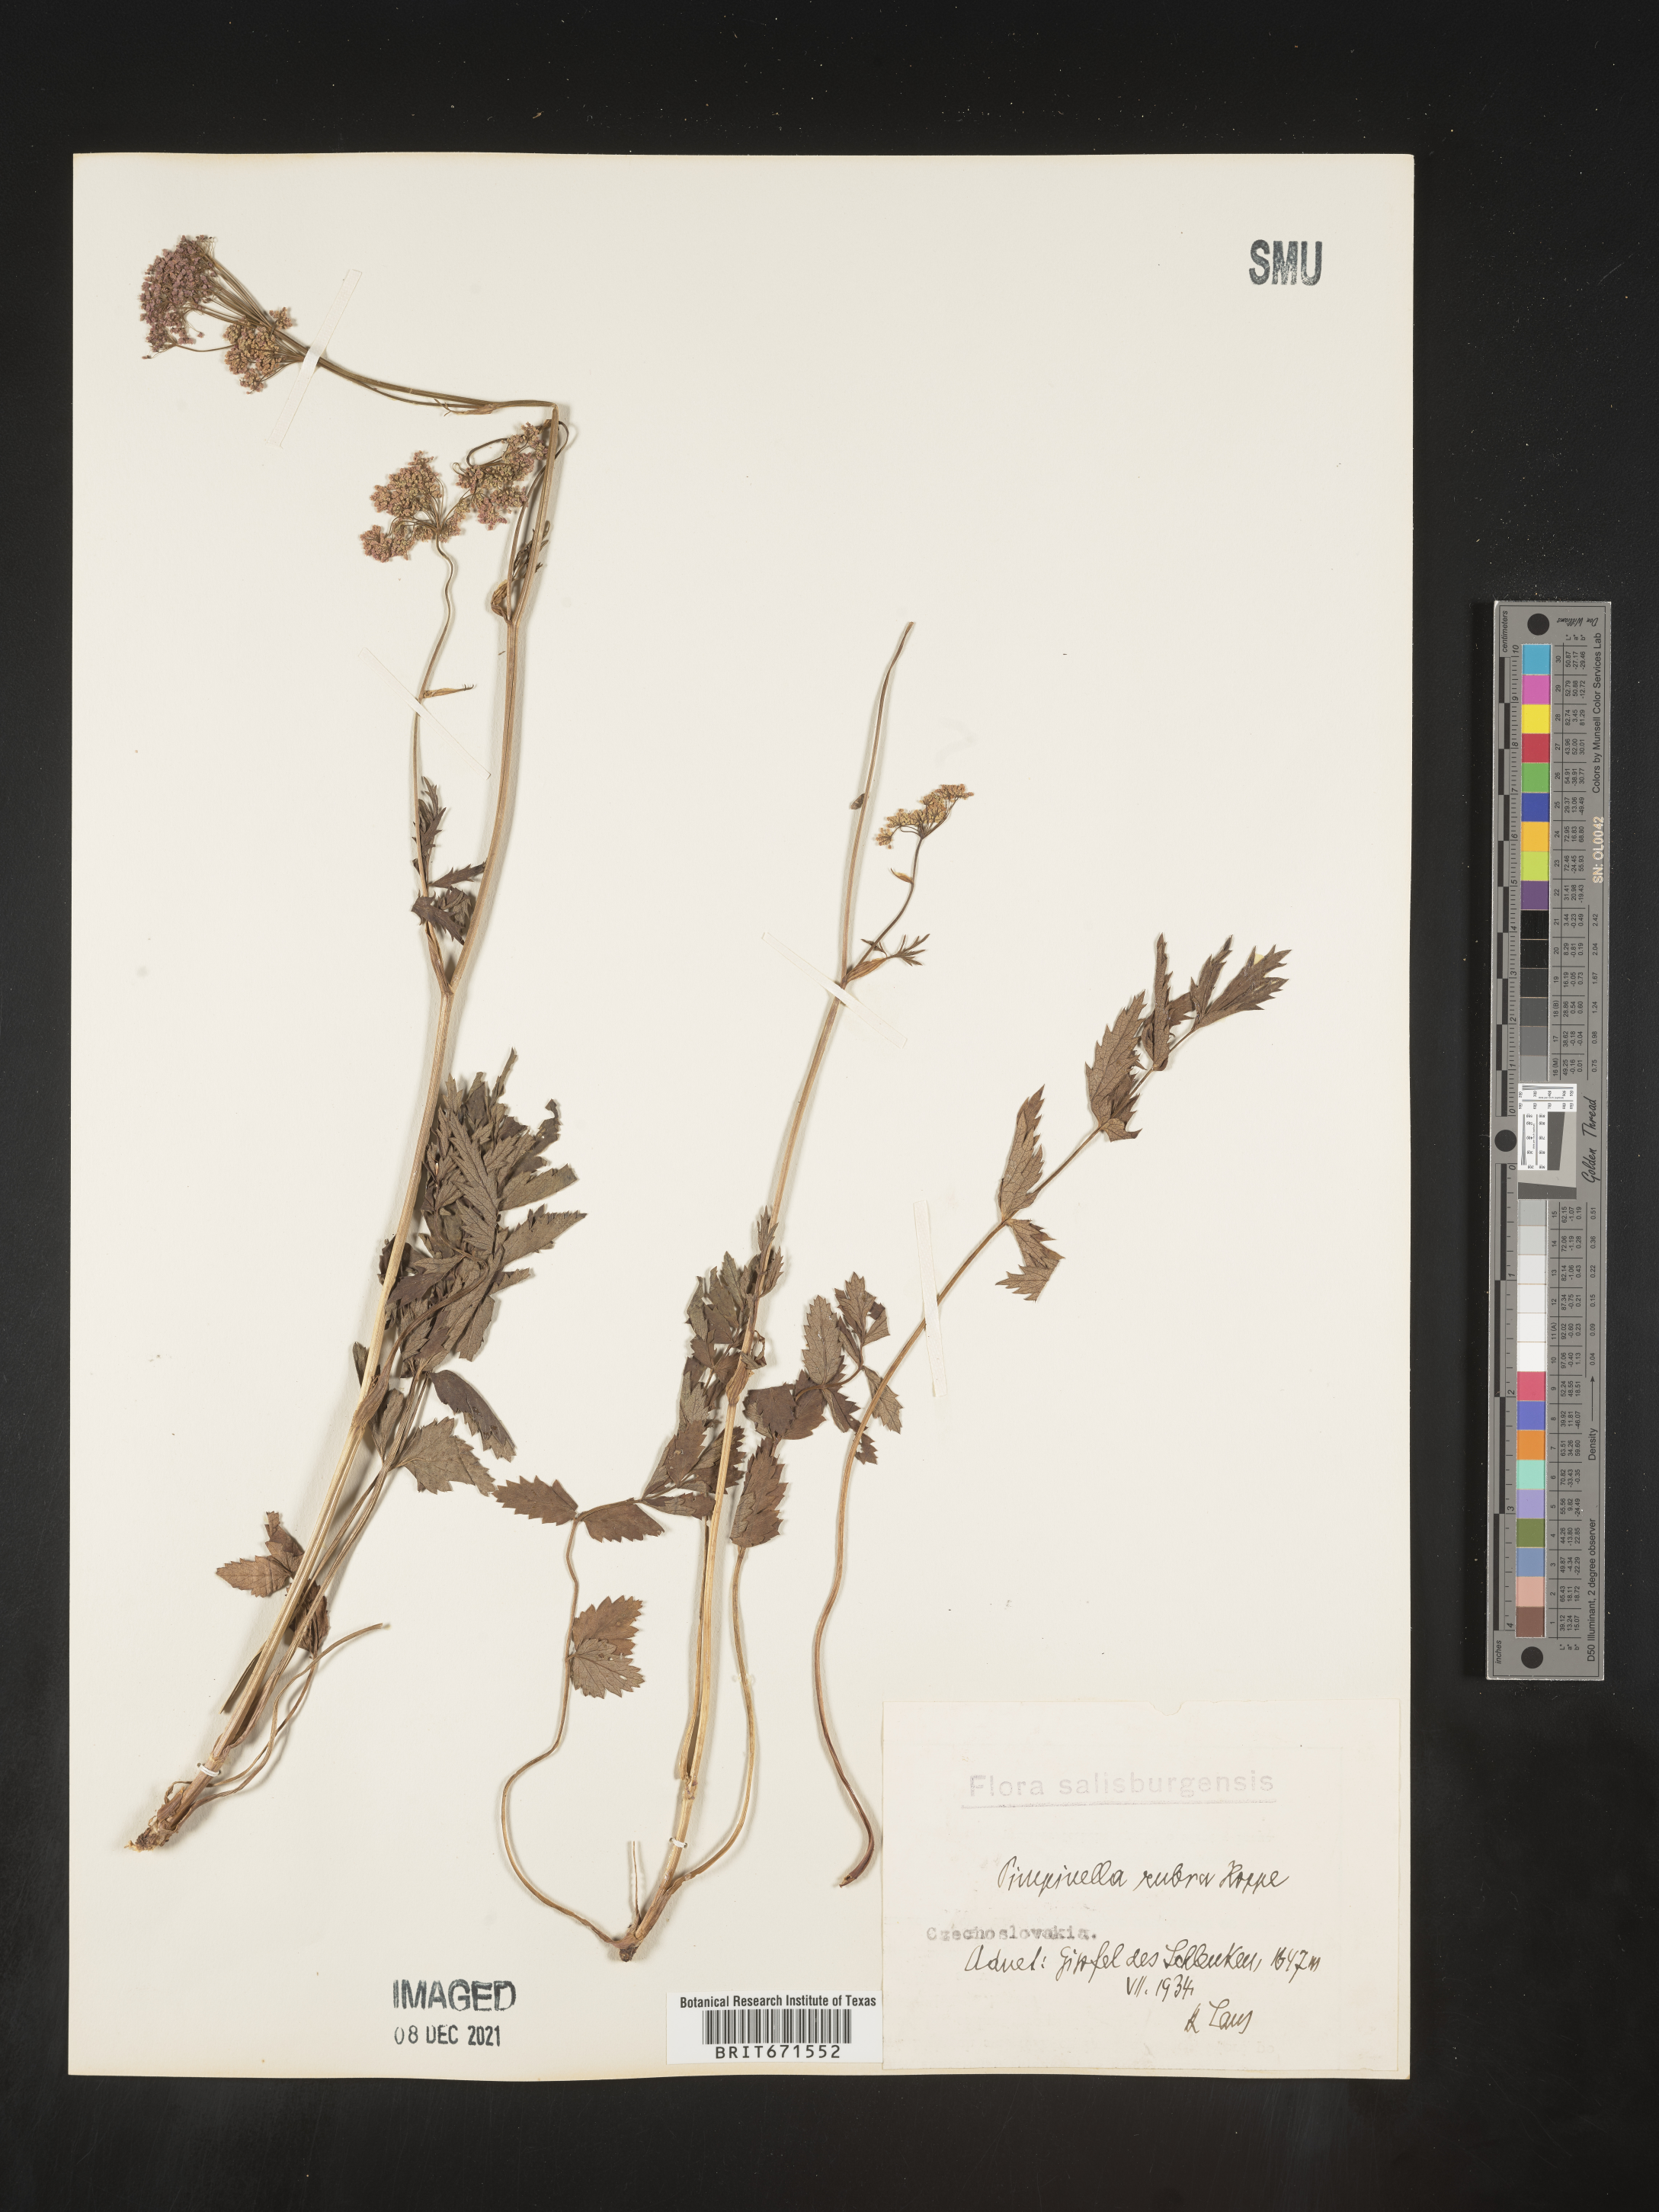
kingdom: Plantae
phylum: Tracheophyta
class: Magnoliopsida
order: Apiales
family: Apiaceae
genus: Pimpinella
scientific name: Pimpinella
